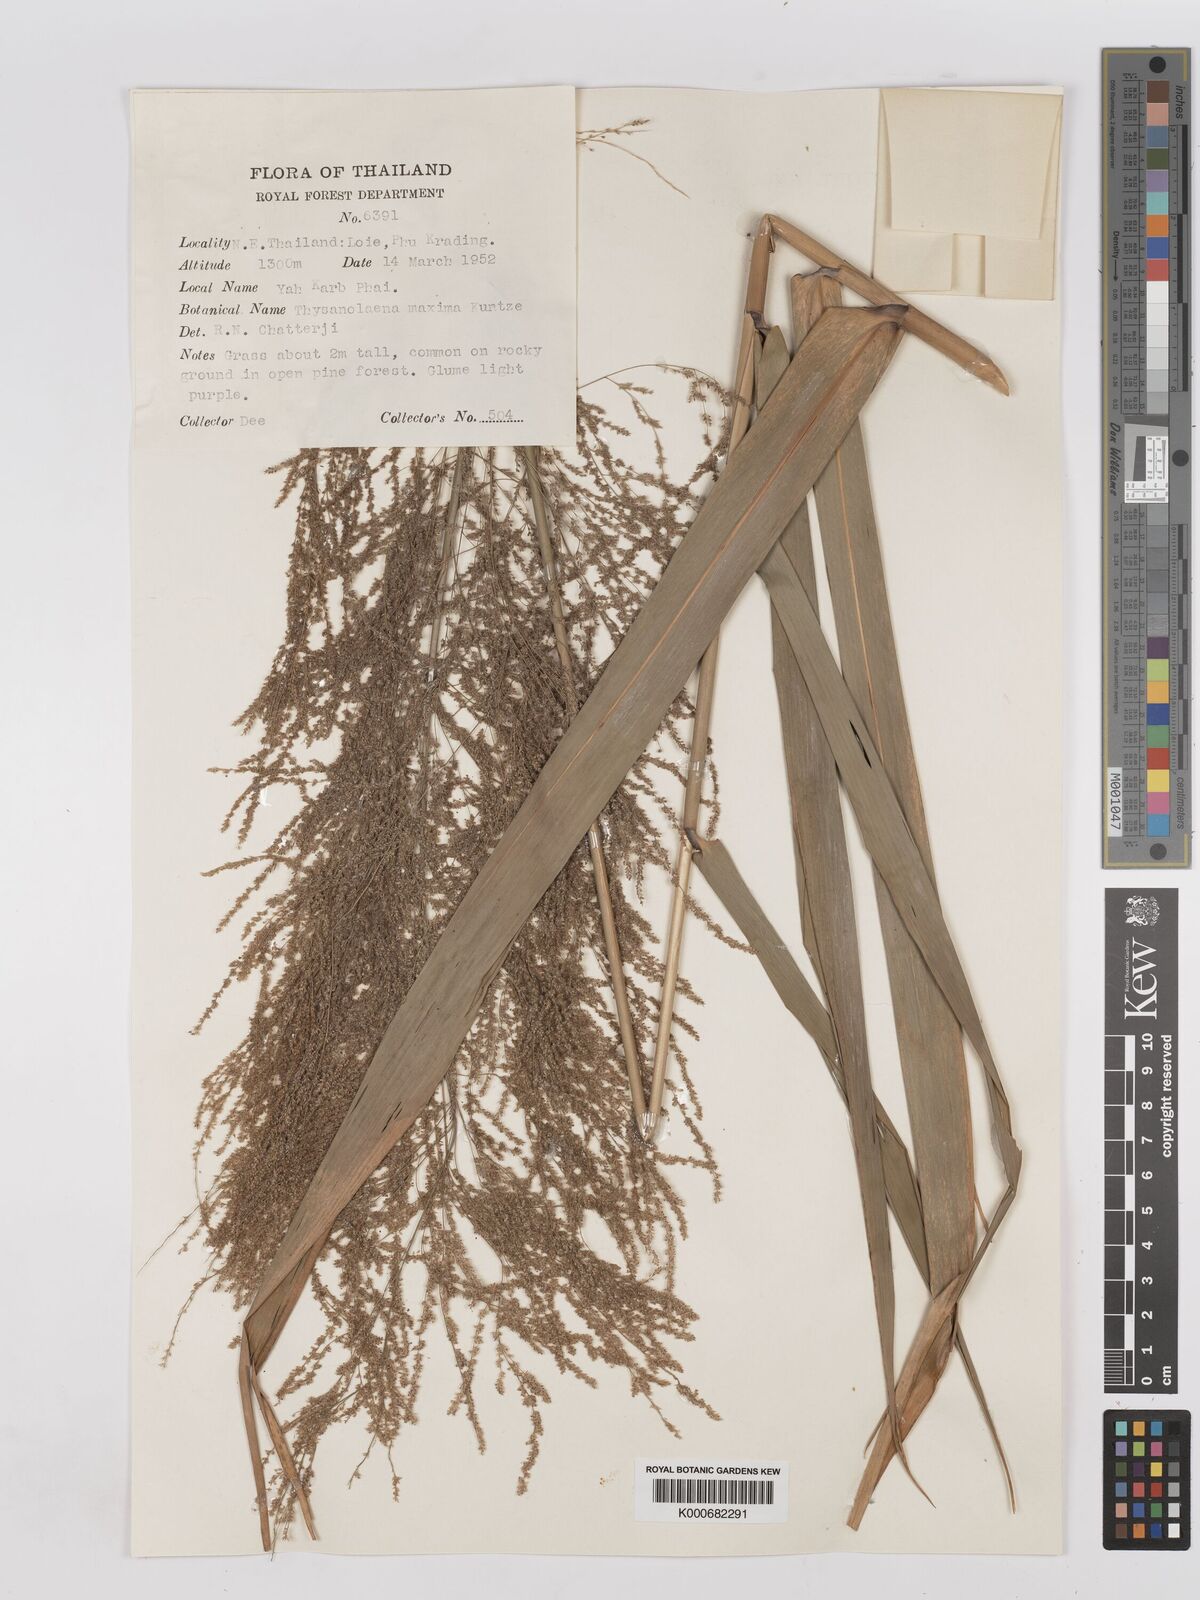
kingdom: Plantae
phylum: Tracheophyta
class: Liliopsida
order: Poales
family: Poaceae
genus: Thysanolaena
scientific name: Thysanolaena latifolia
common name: Tiger grass
